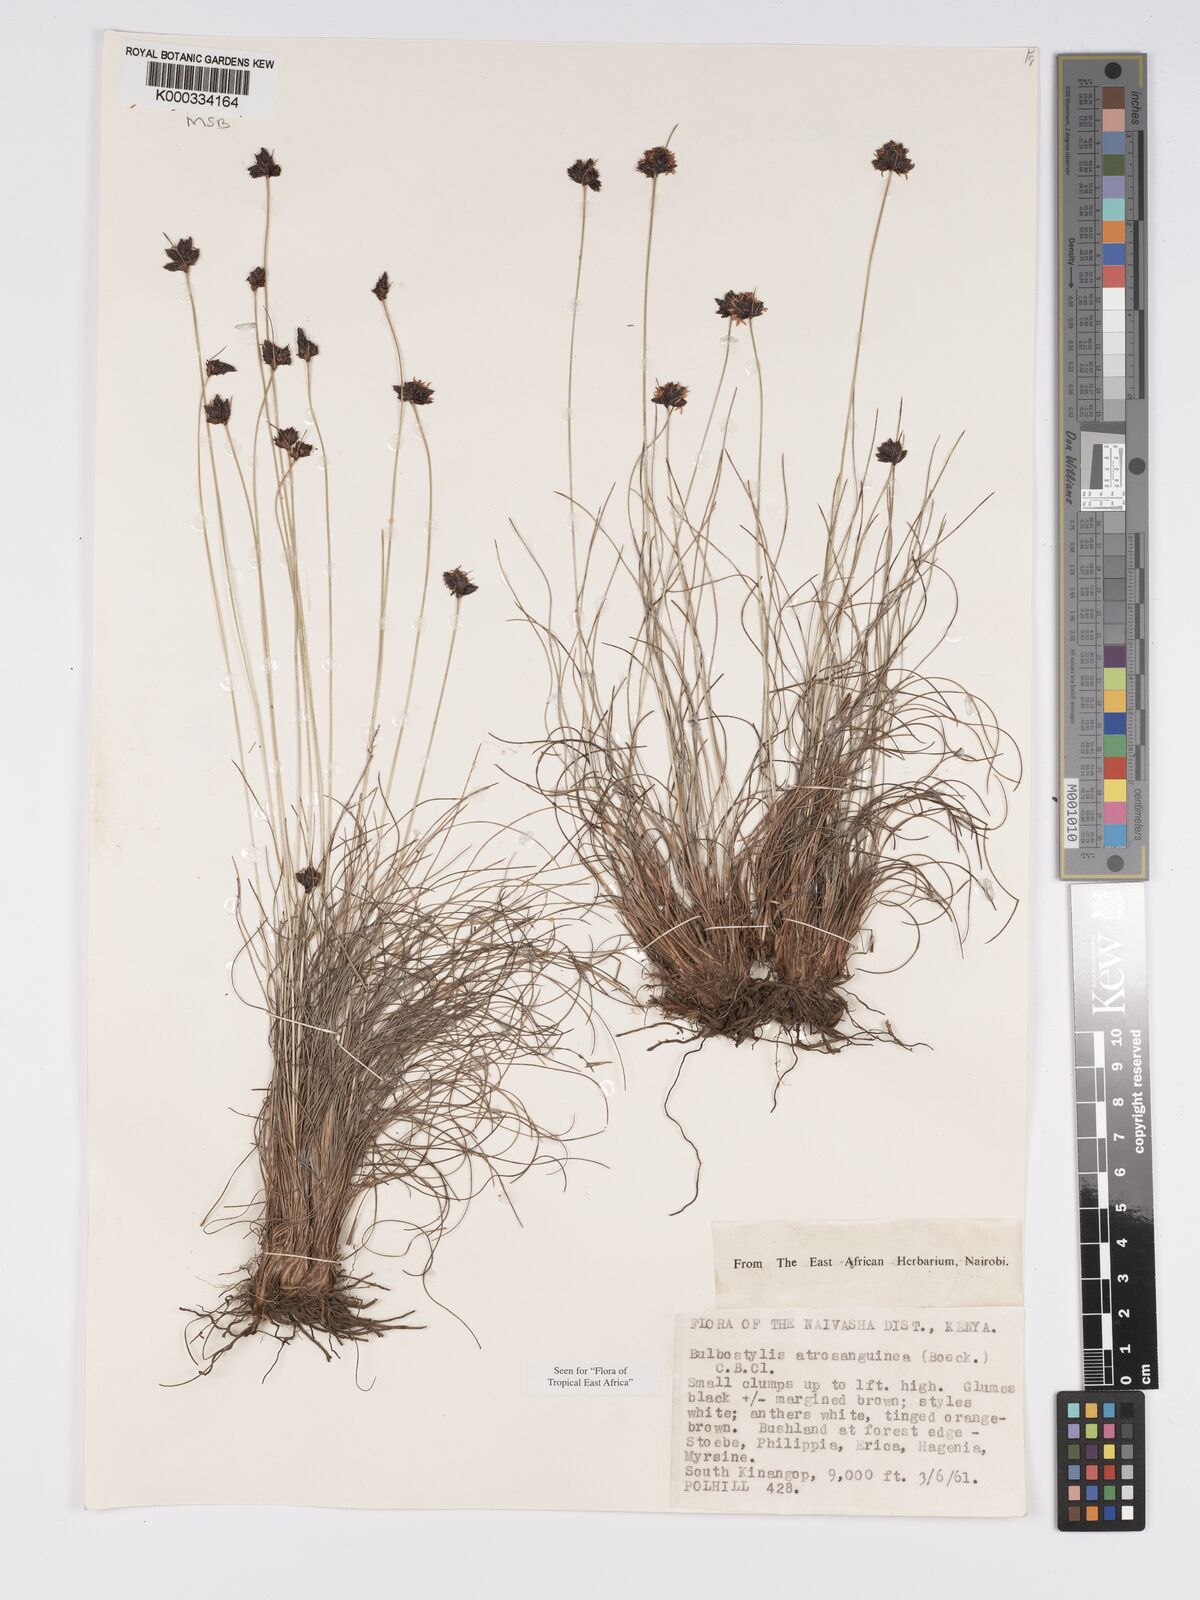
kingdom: Plantae
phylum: Tracheophyta
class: Liliopsida
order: Poales
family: Cyperaceae
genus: Bulbostylis
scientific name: Bulbostylis atrosanguinea
